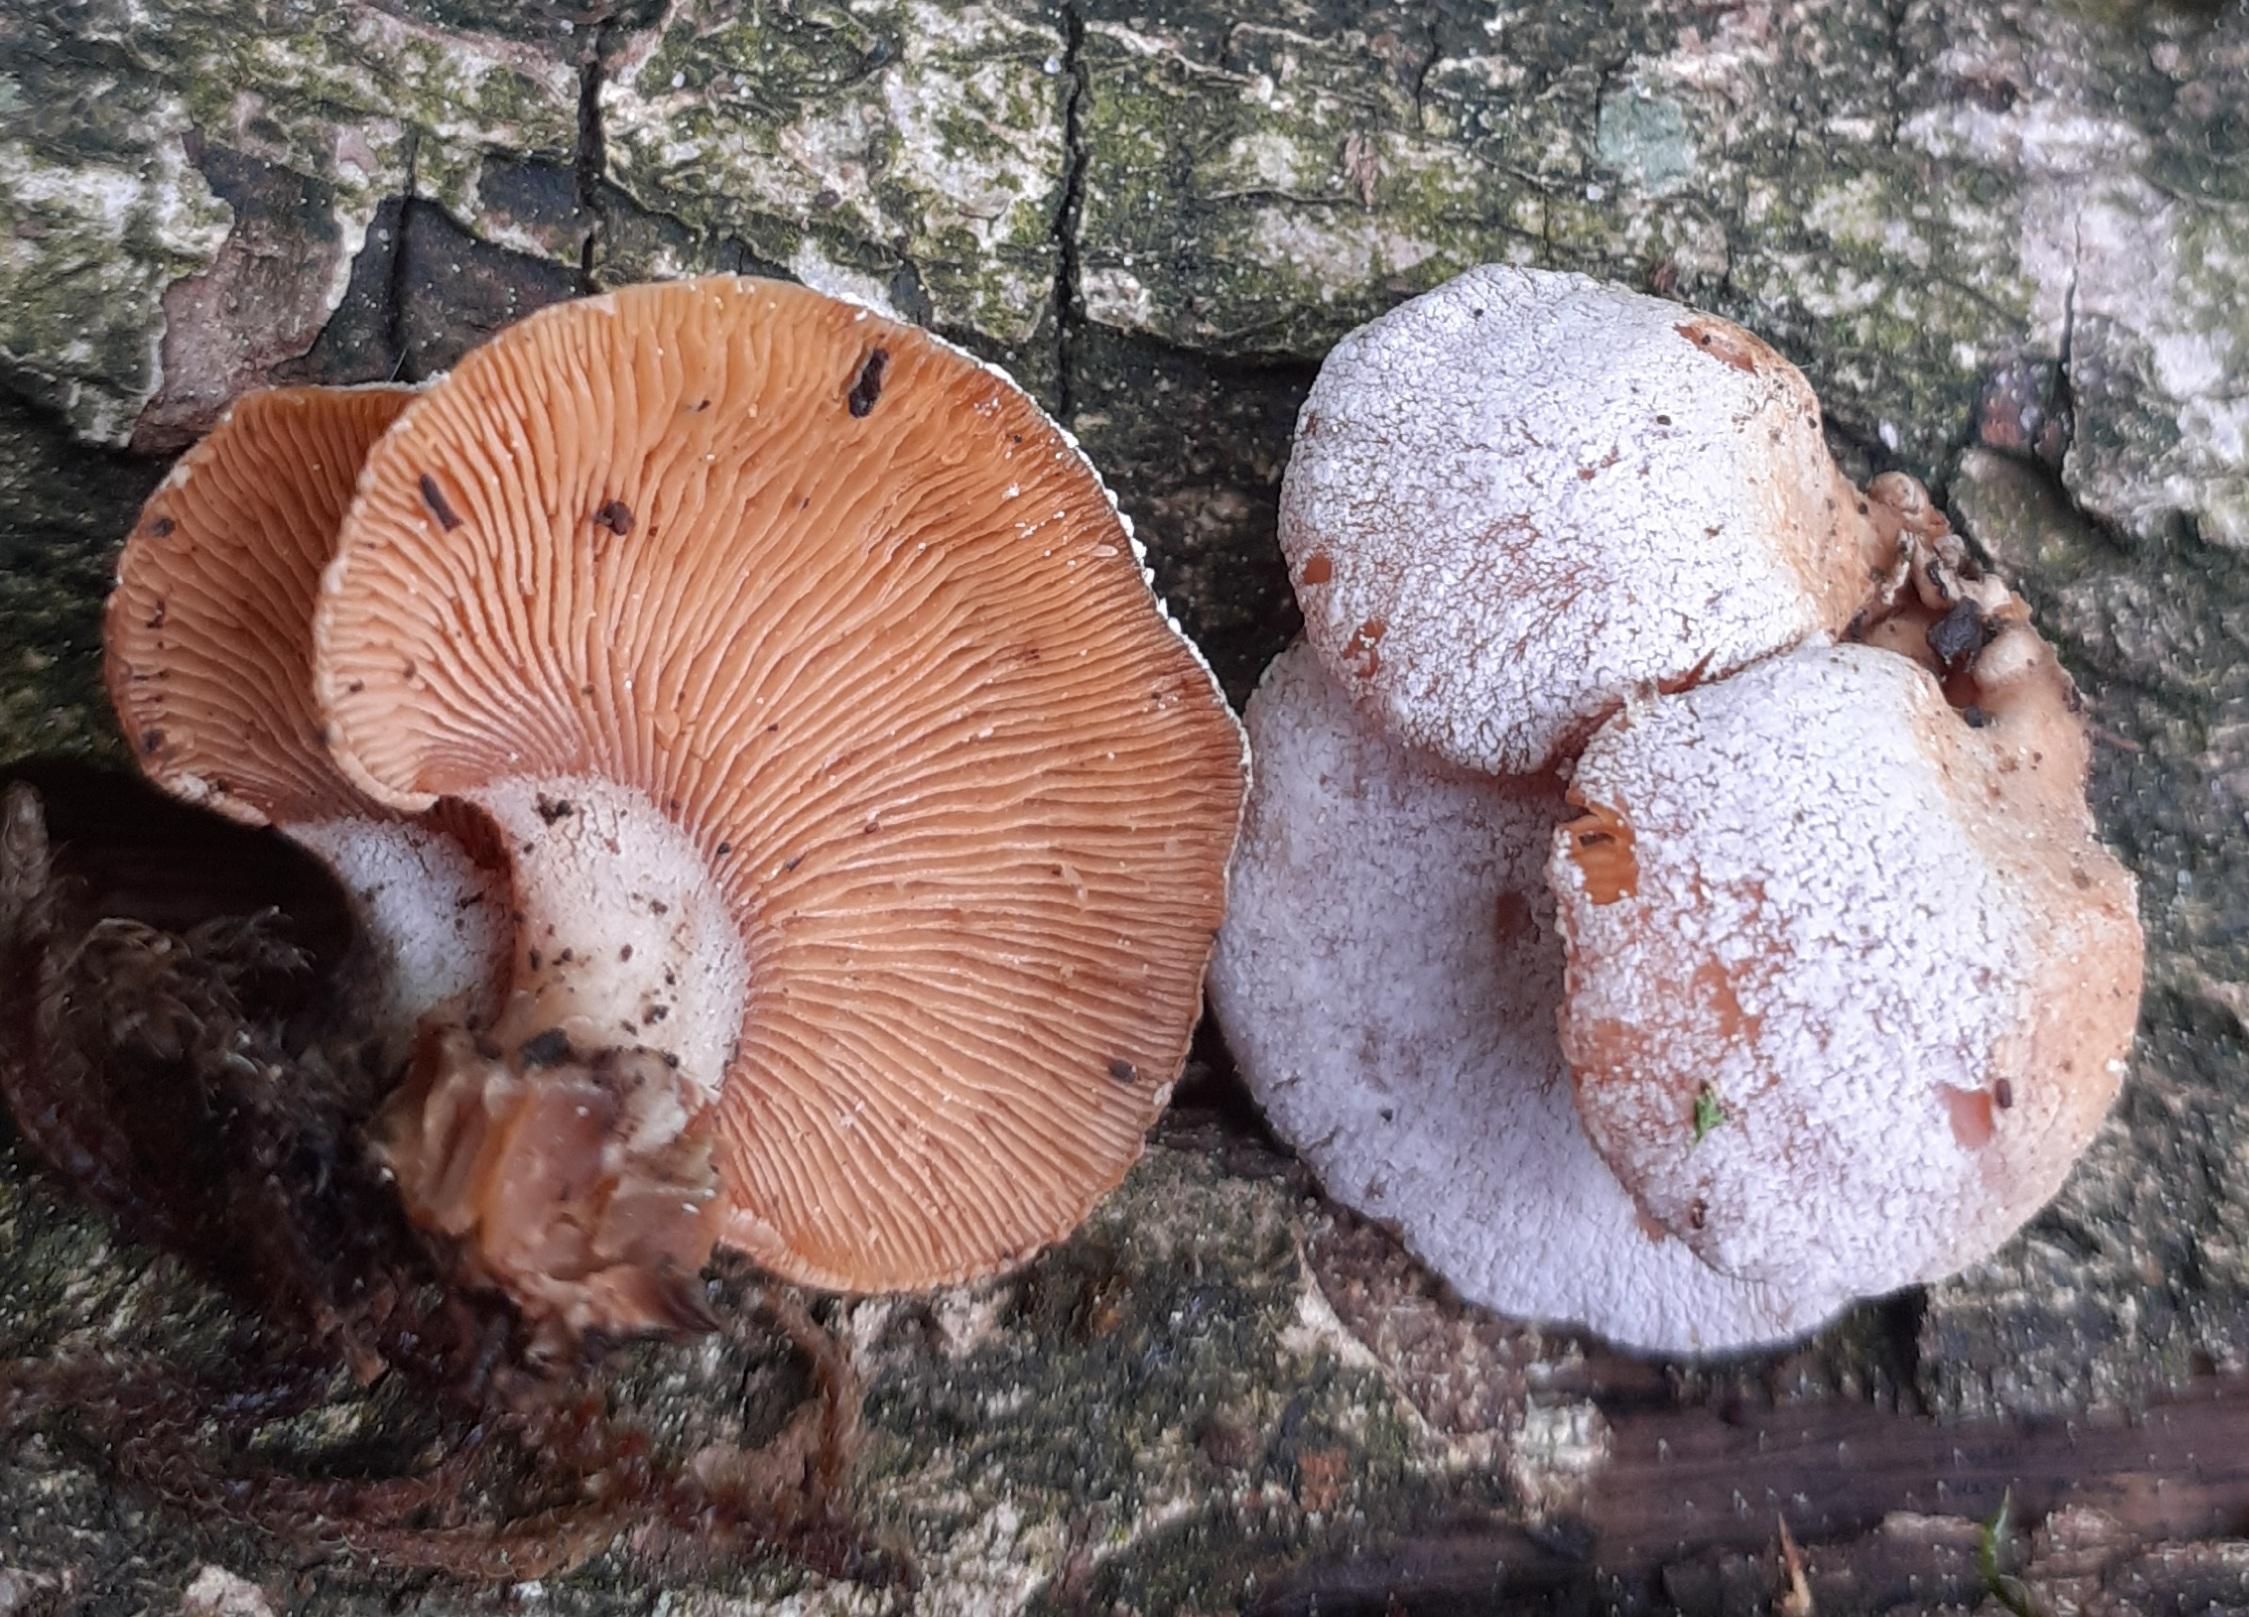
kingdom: Fungi
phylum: Basidiomycota
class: Agaricomycetes
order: Agaricales
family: Mycenaceae
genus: Panellus
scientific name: Panellus stipticus
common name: kliddet epaulethat
